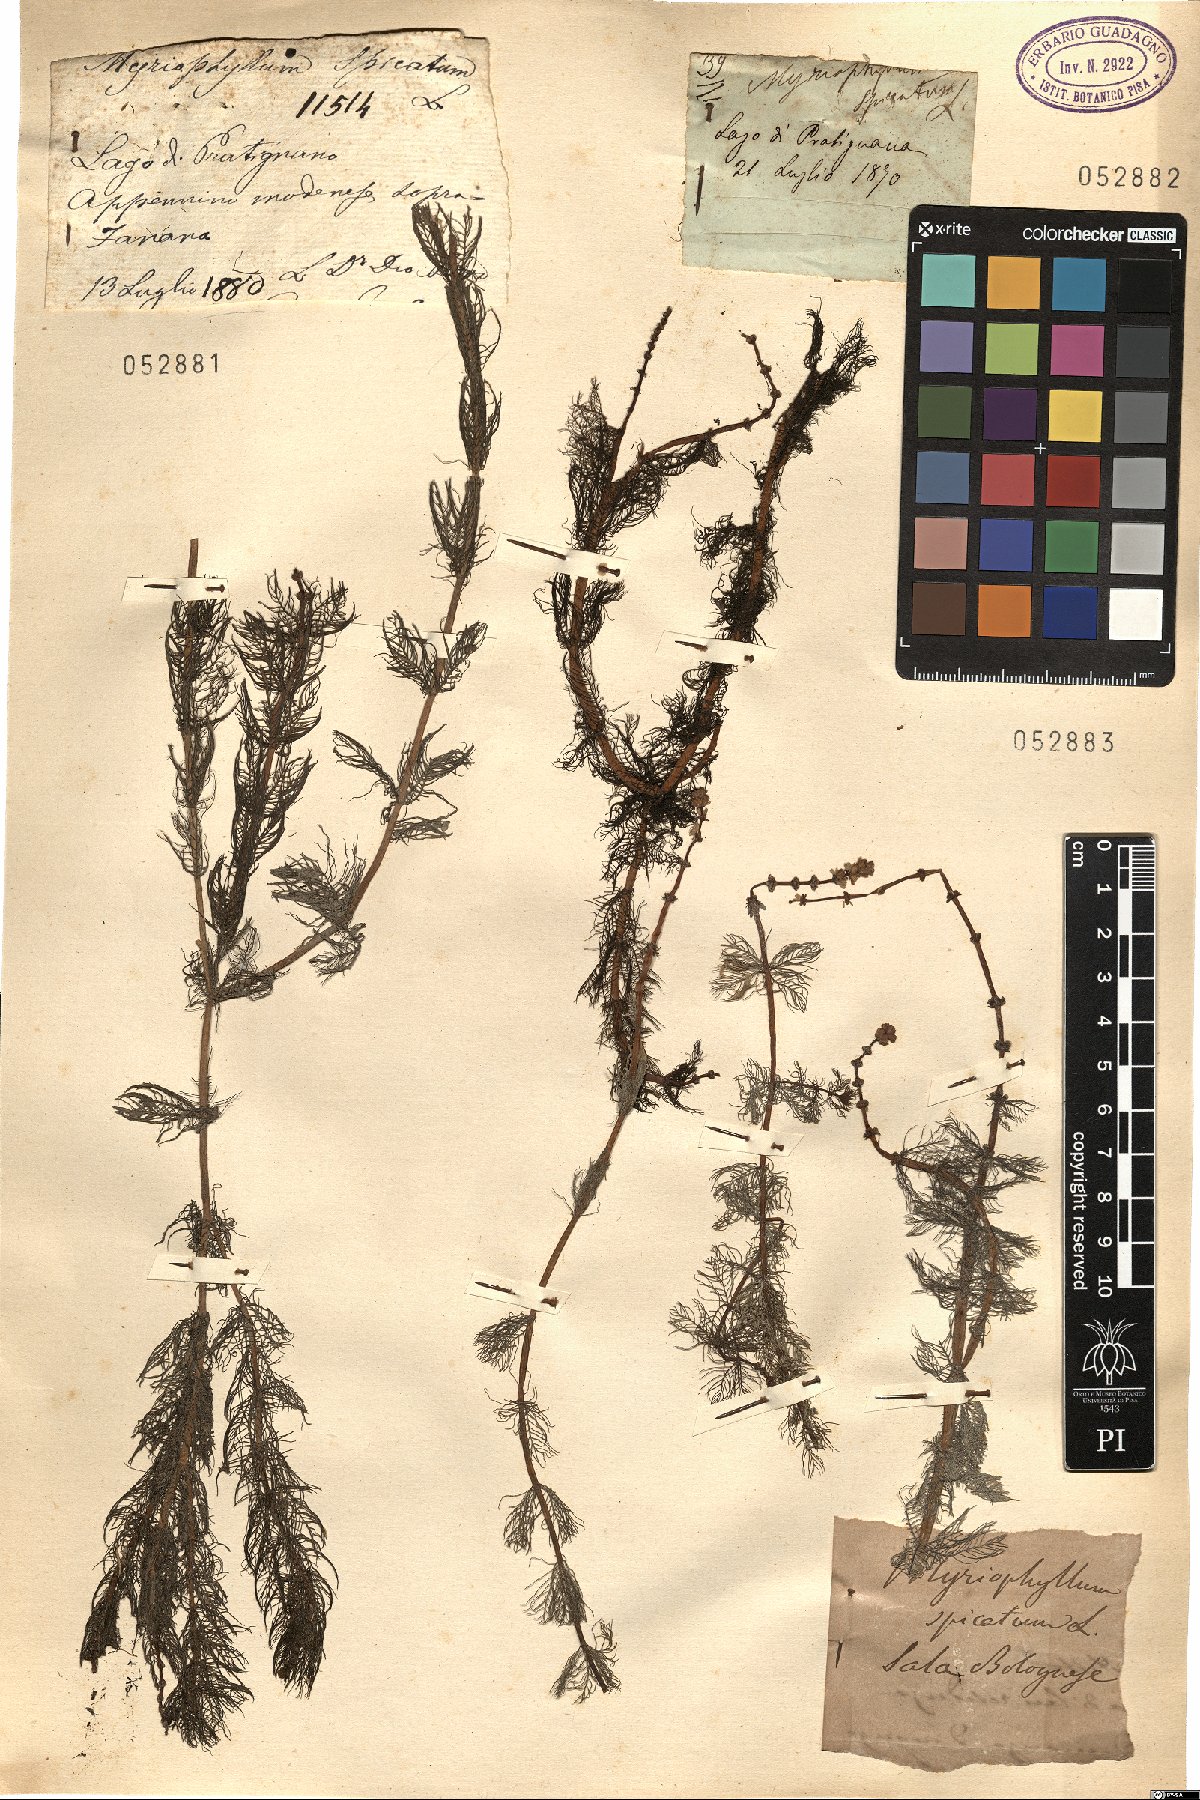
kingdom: Plantae
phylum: Tracheophyta
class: Magnoliopsida
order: Saxifragales
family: Haloragaceae
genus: Myriophyllum
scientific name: Myriophyllum spicatum
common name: Spiked water-milfoil
